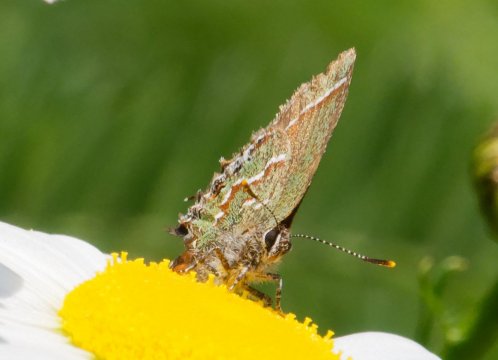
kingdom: Animalia
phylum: Arthropoda
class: Insecta
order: Lepidoptera
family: Lycaenidae
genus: Mitoura
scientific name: Mitoura gryneus
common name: Juniper Hairstreak
